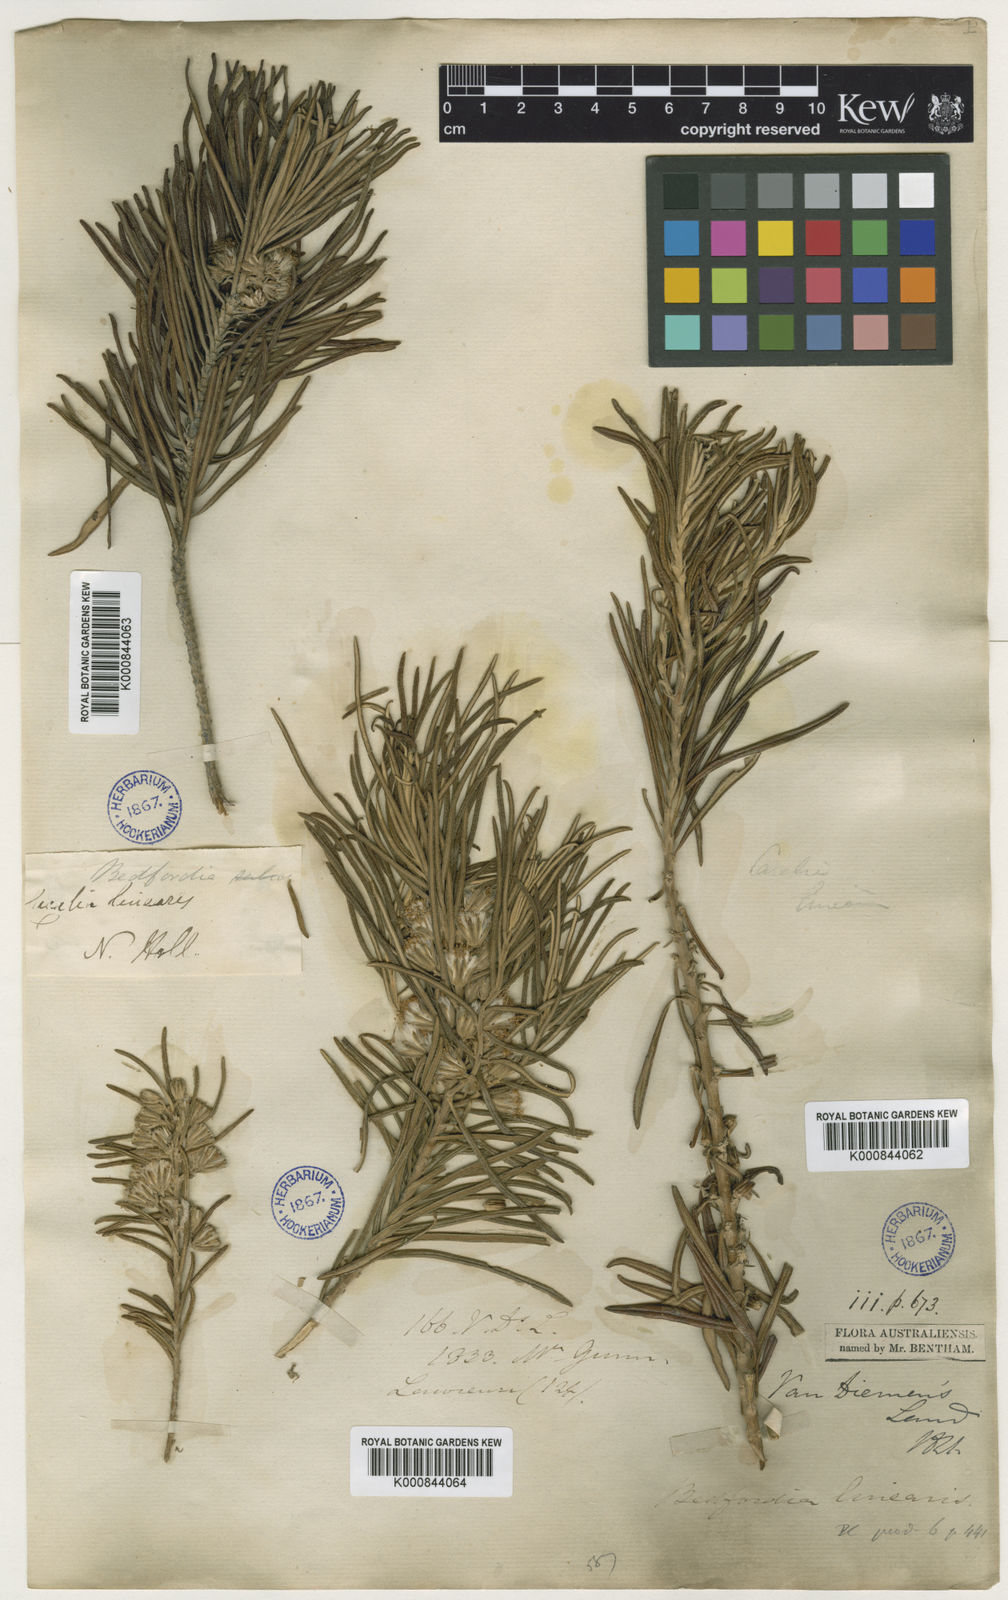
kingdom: Plantae
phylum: Tracheophyta
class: Magnoliopsida
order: Asterales
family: Asteraceae
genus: Bedfordia
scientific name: Bedfordia linearis
